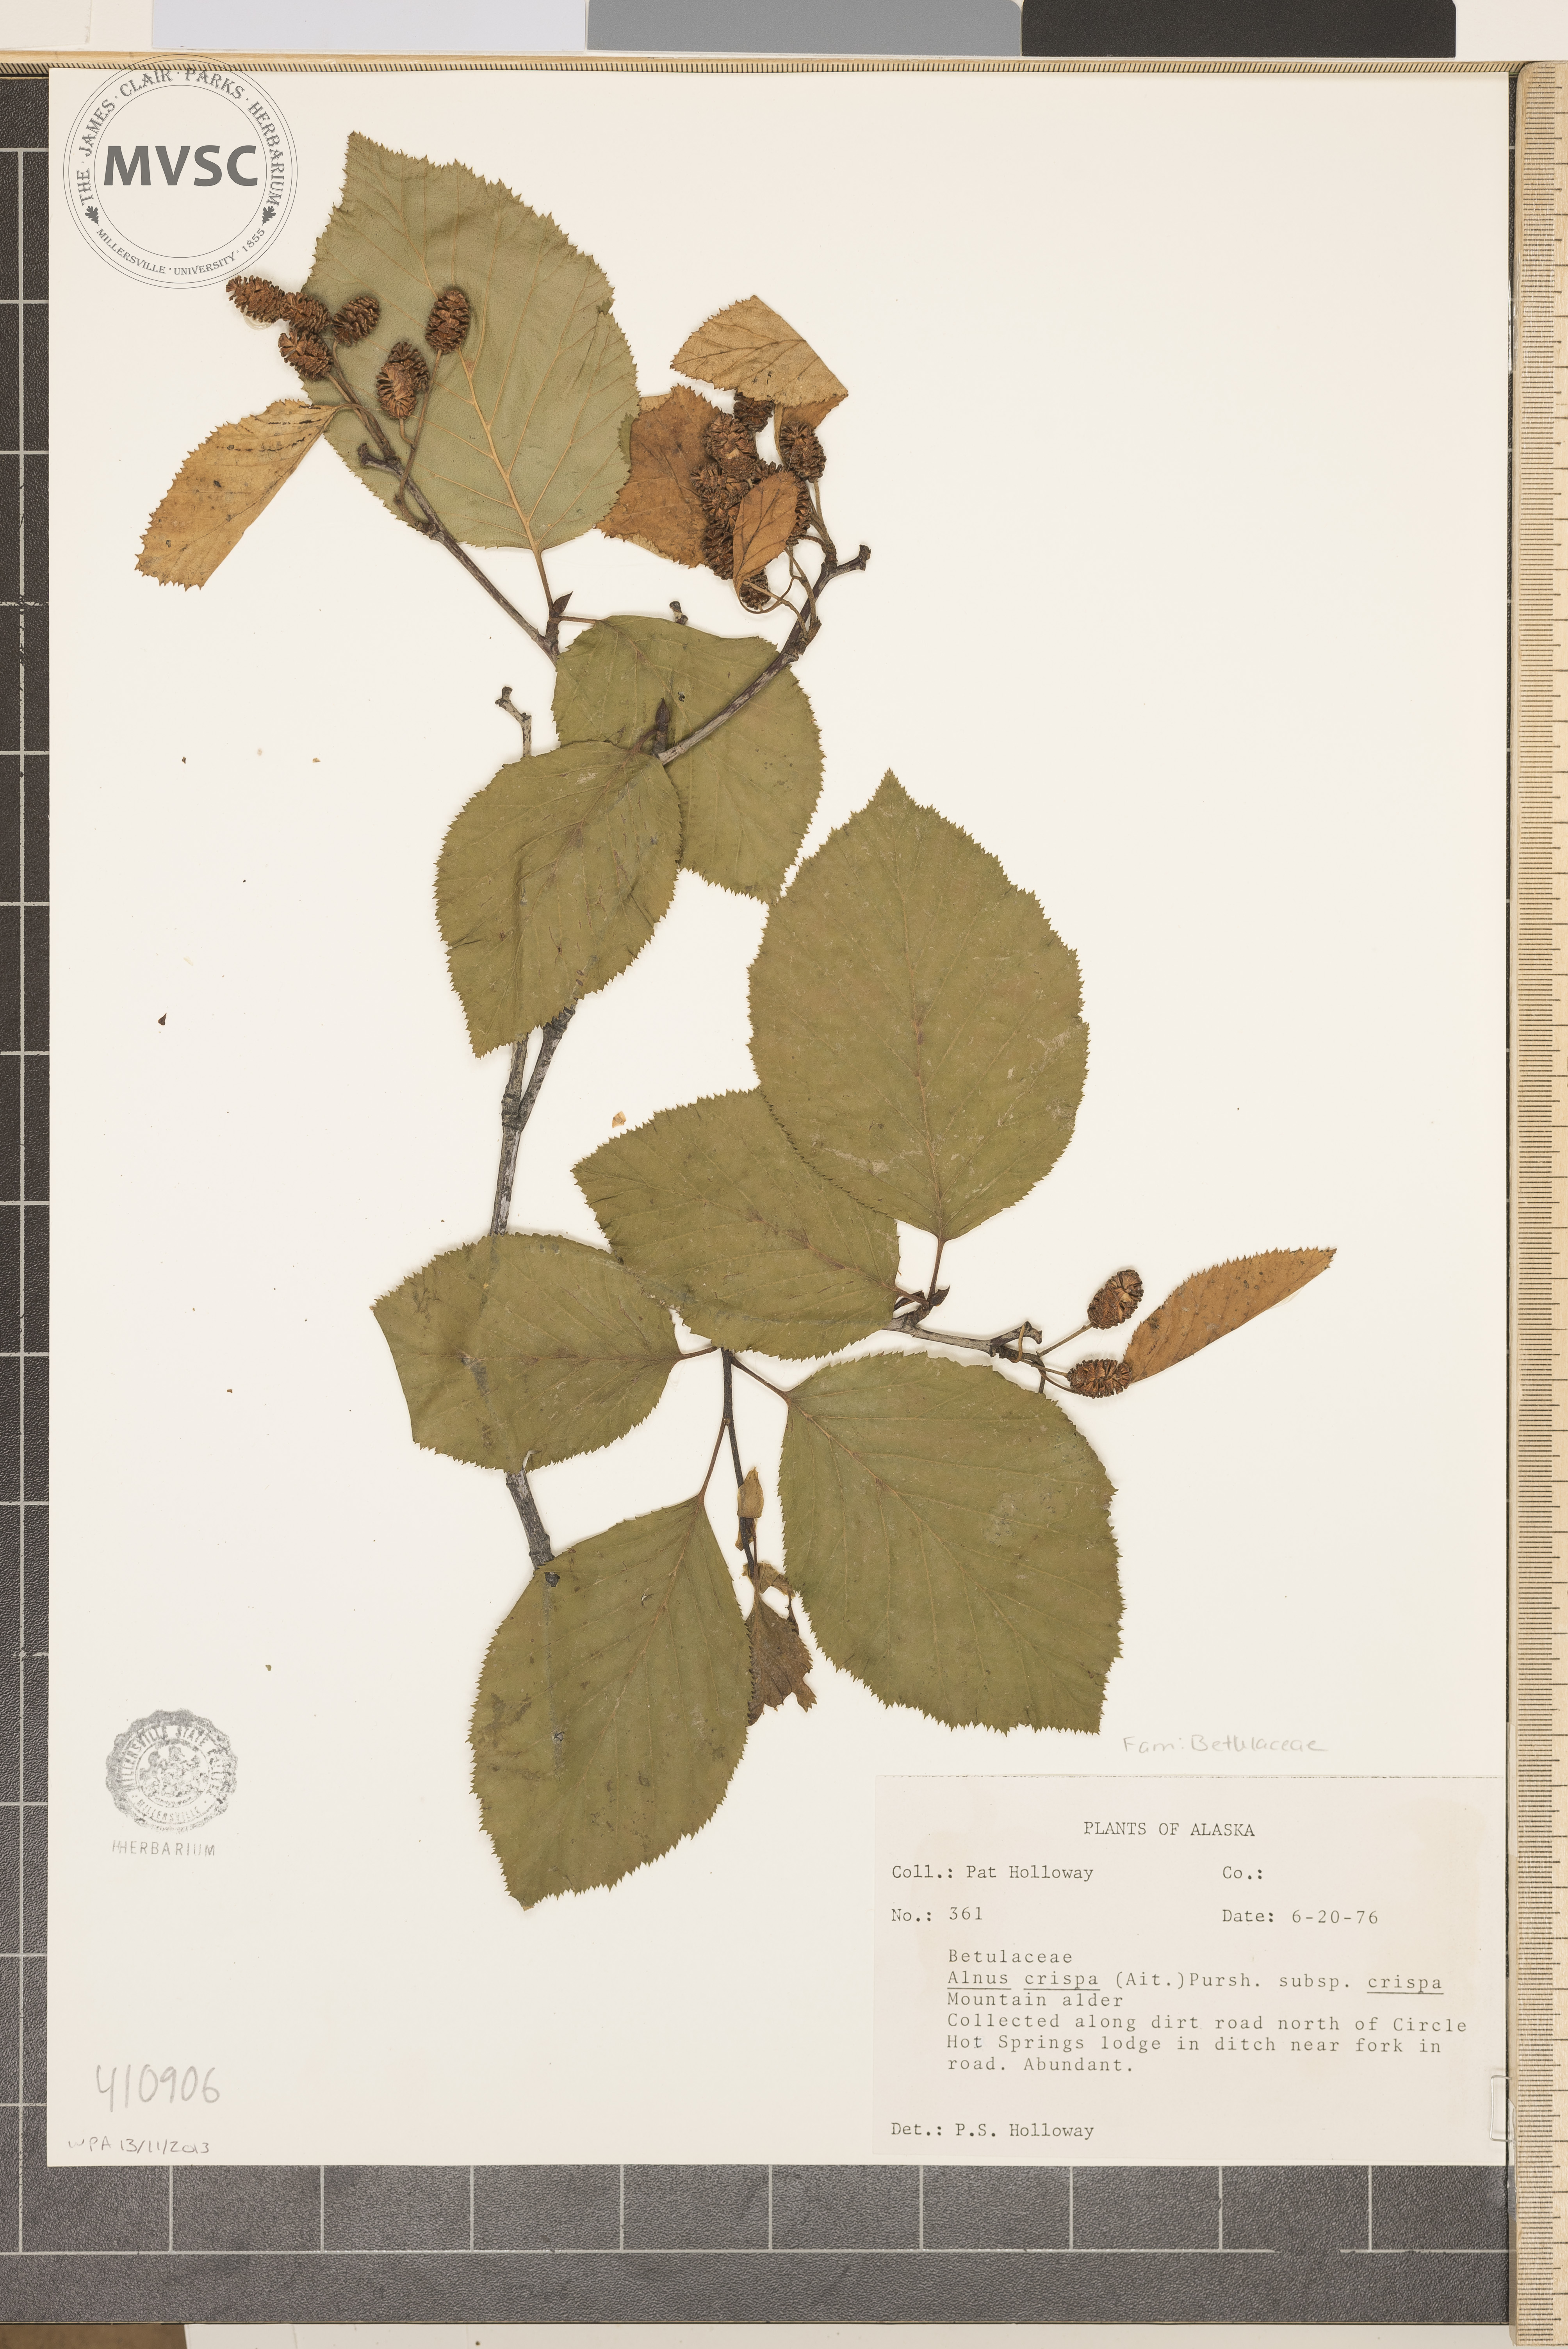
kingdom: Plantae
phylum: Tracheophyta
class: Magnoliopsida
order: Fagales
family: Betulaceae
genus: Alnus
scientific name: Alnus crispa
